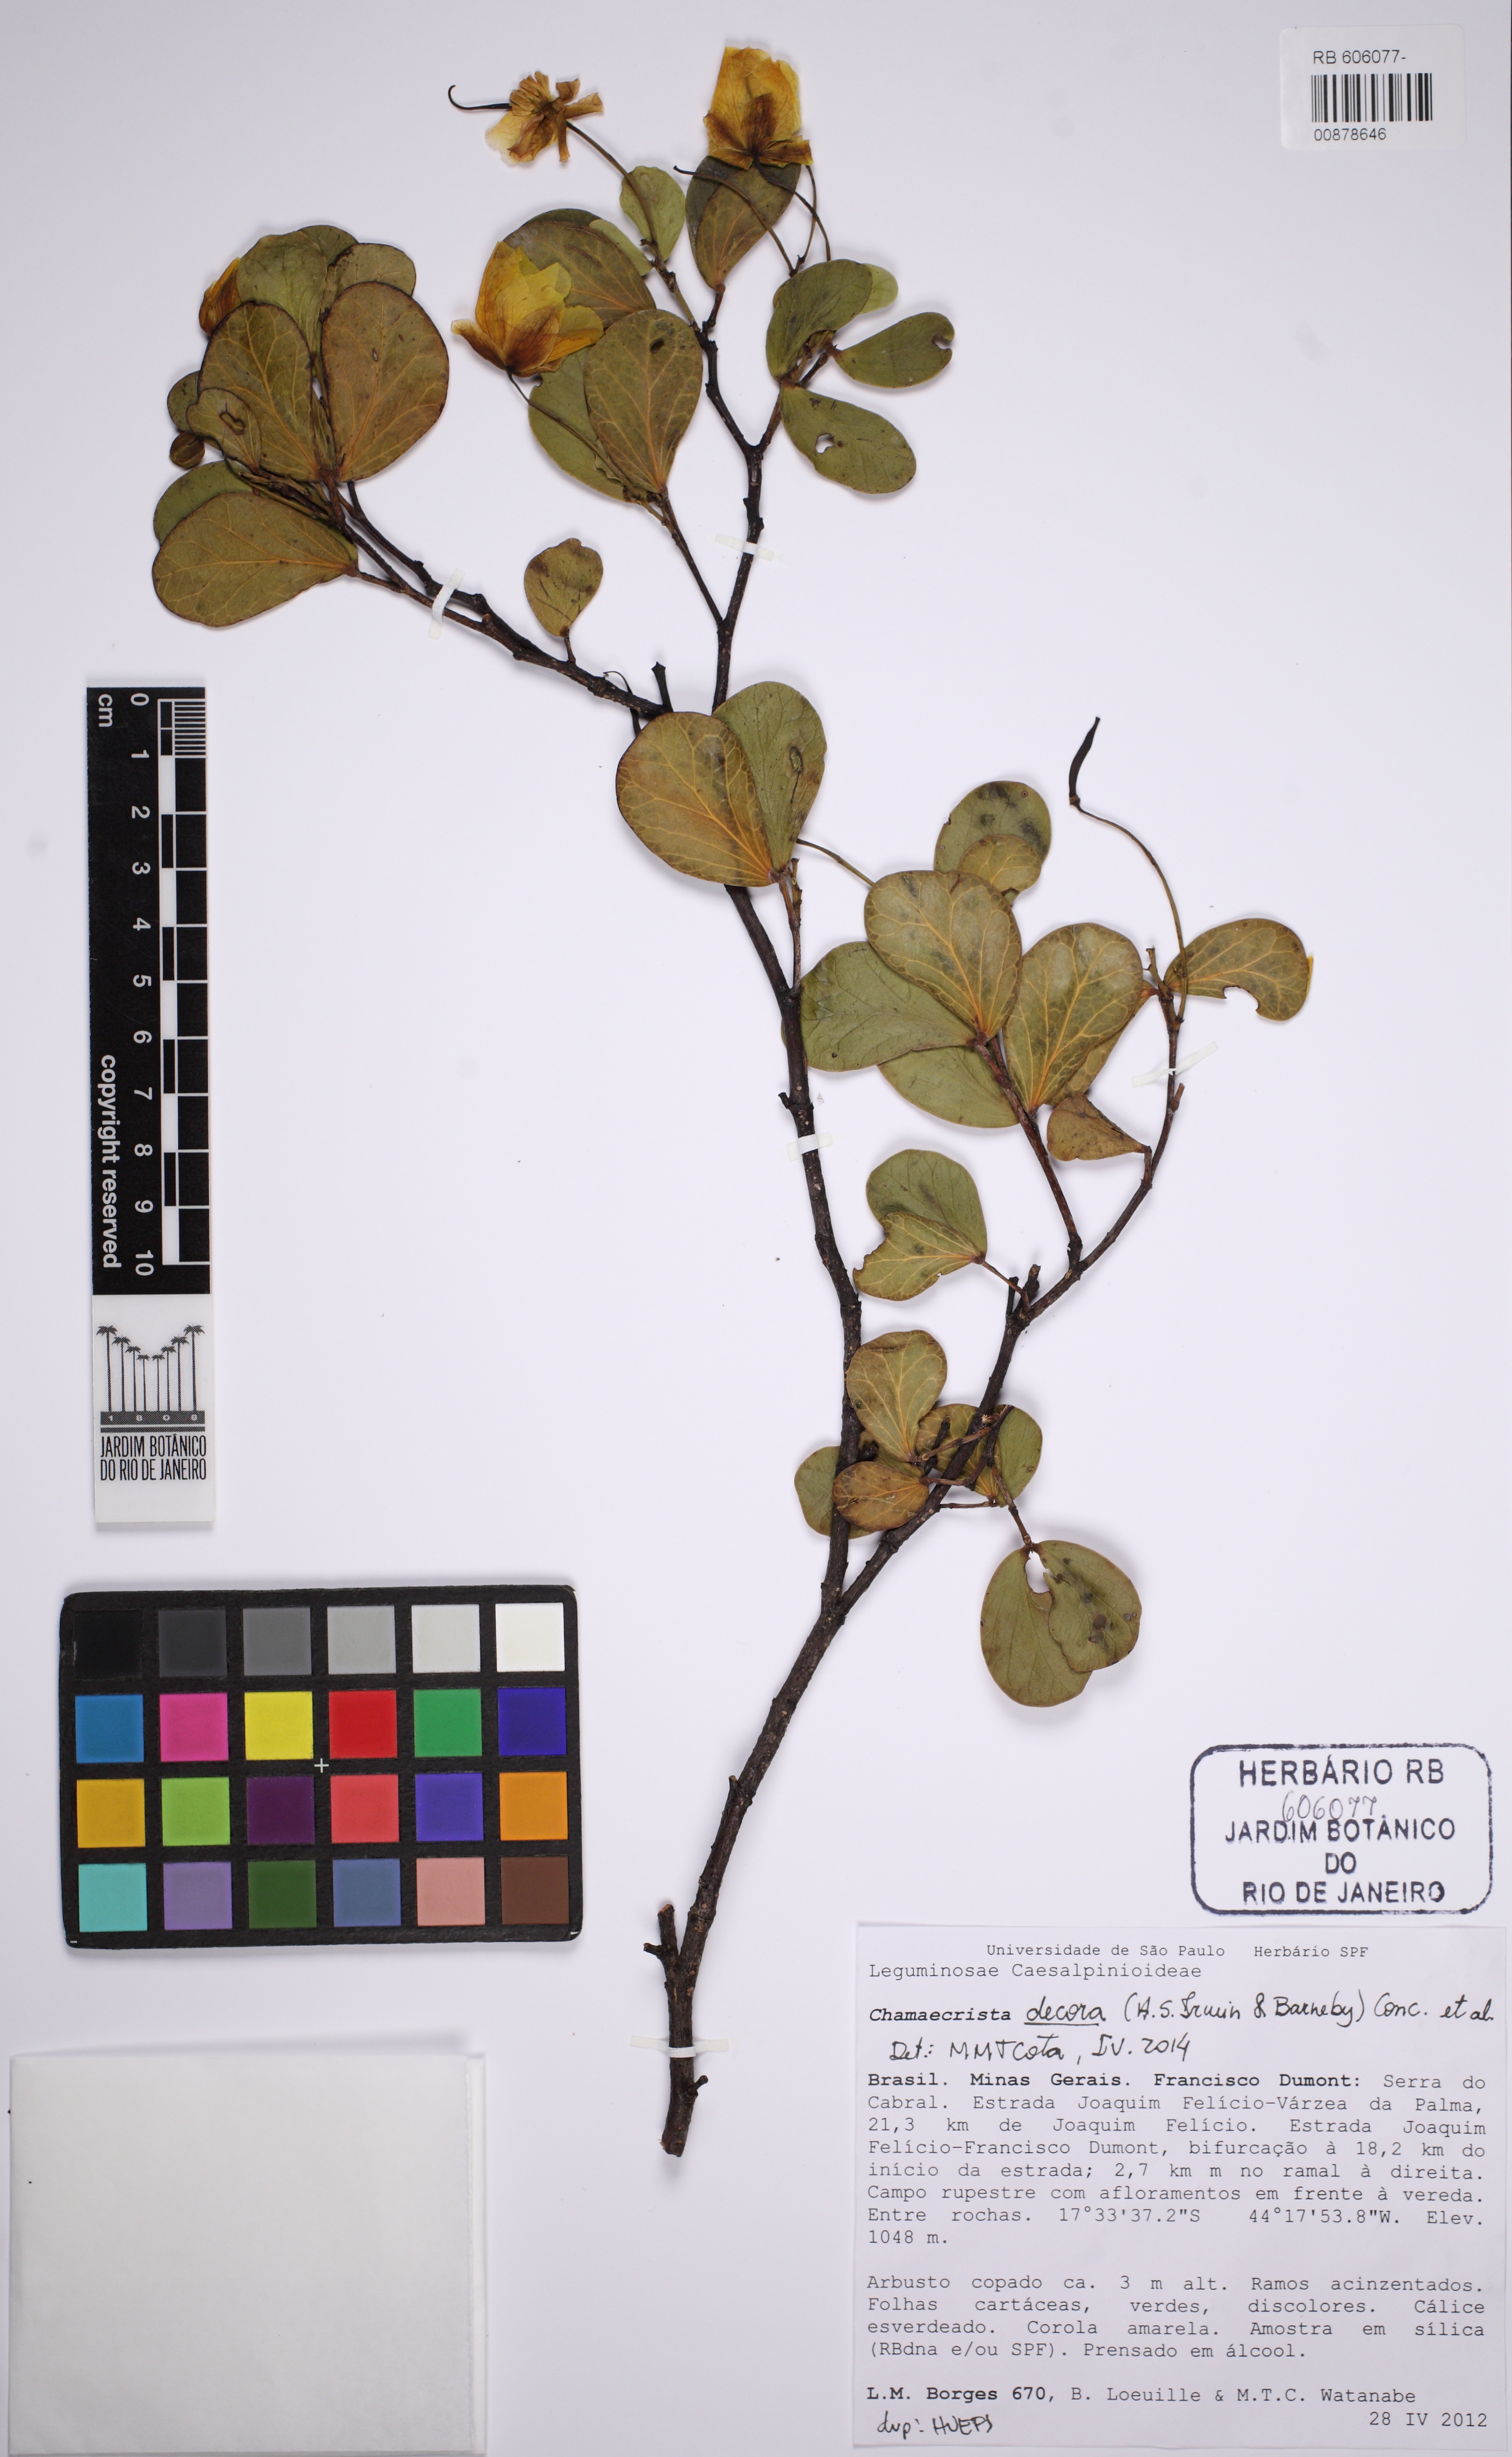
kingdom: Plantae
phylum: Tracheophyta
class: Magnoliopsida
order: Fabales
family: Fabaceae
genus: Chamaecrista
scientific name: Chamaecrista decora
